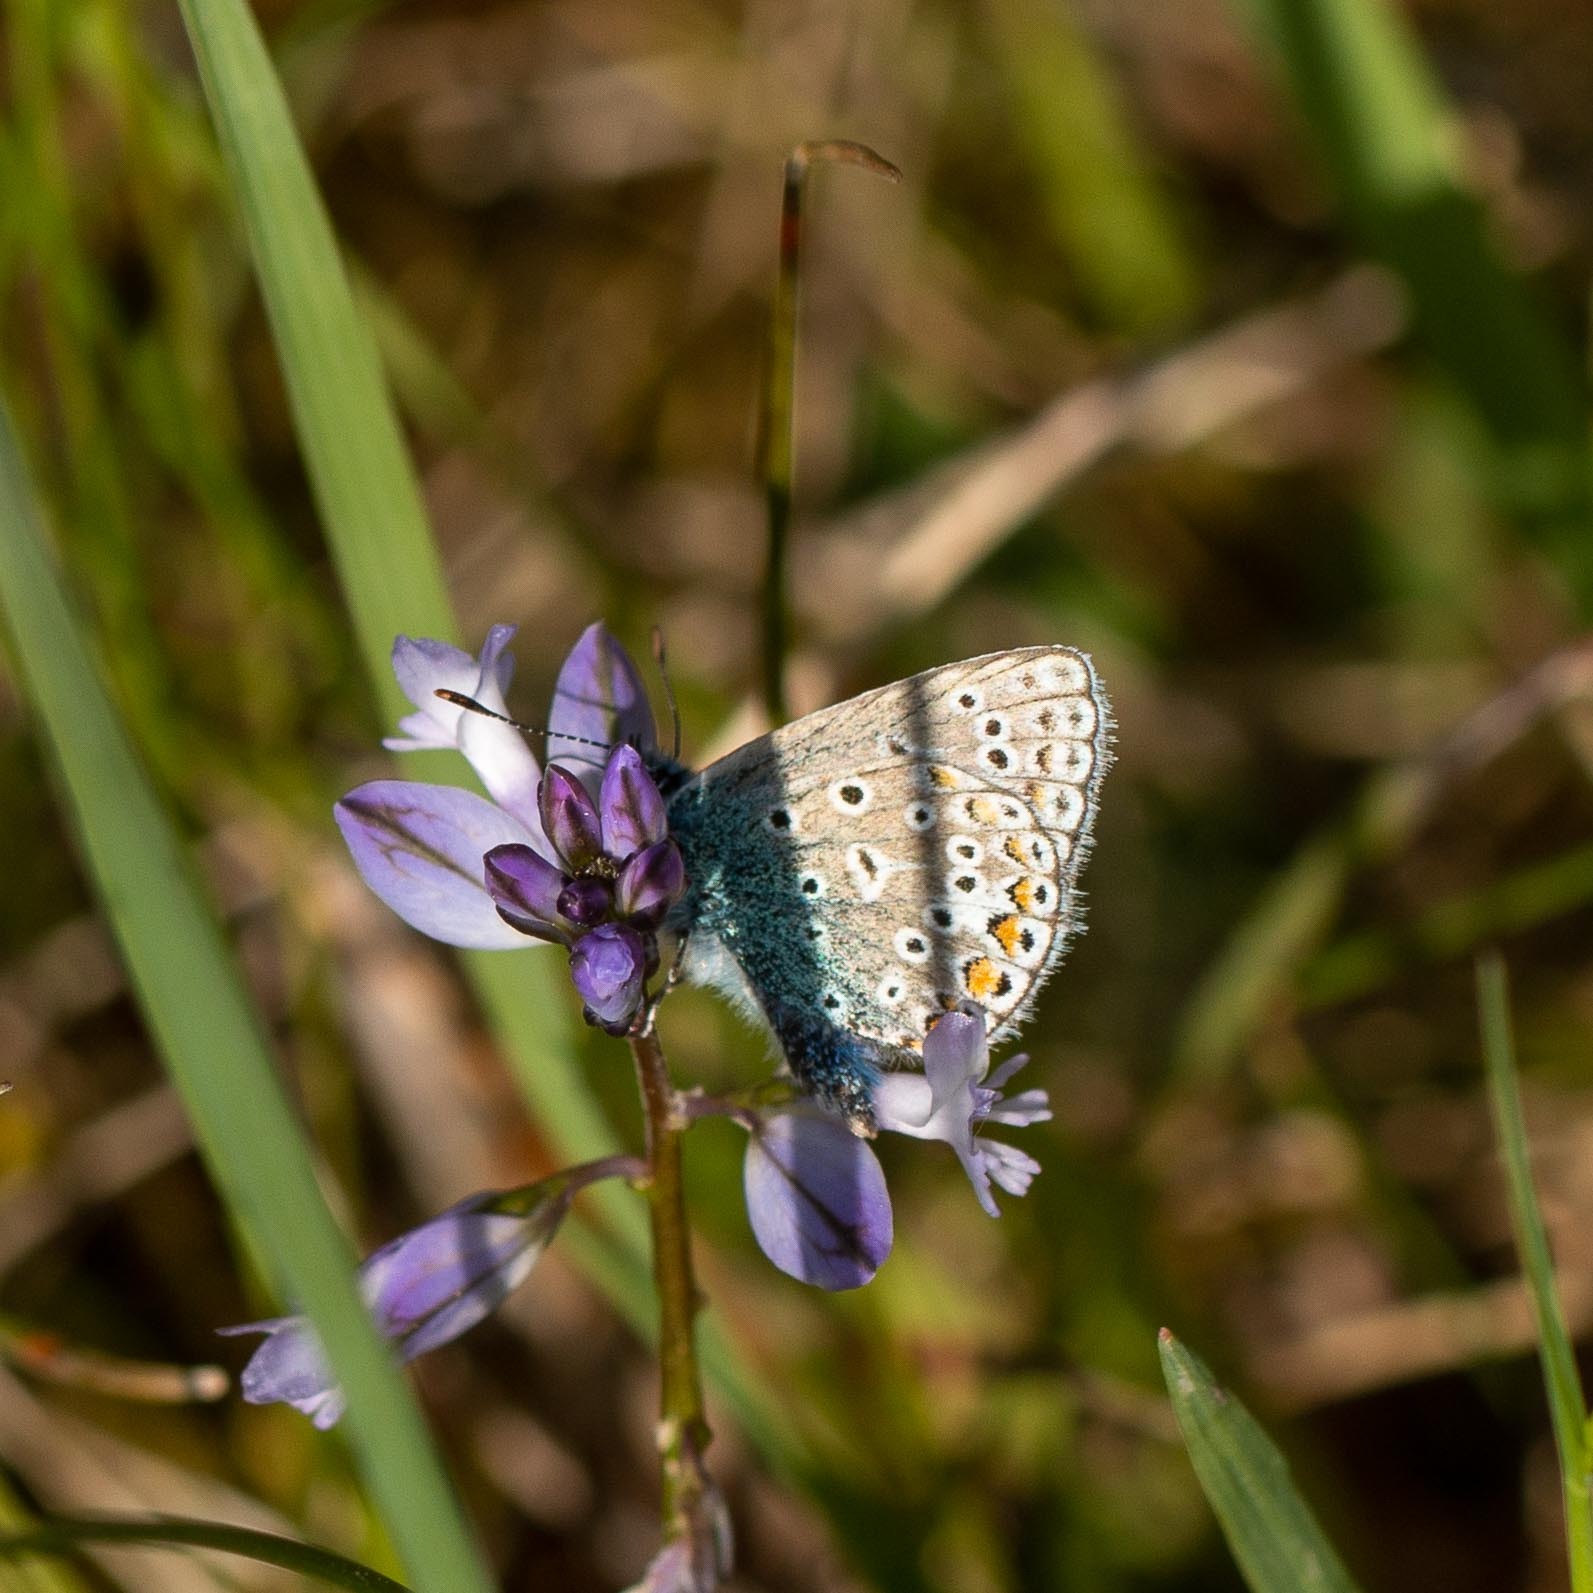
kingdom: Animalia
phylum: Arthropoda
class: Insecta
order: Lepidoptera
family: Lycaenidae
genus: Polyommatus
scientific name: Polyommatus icarus
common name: Almindelig blåfugl
